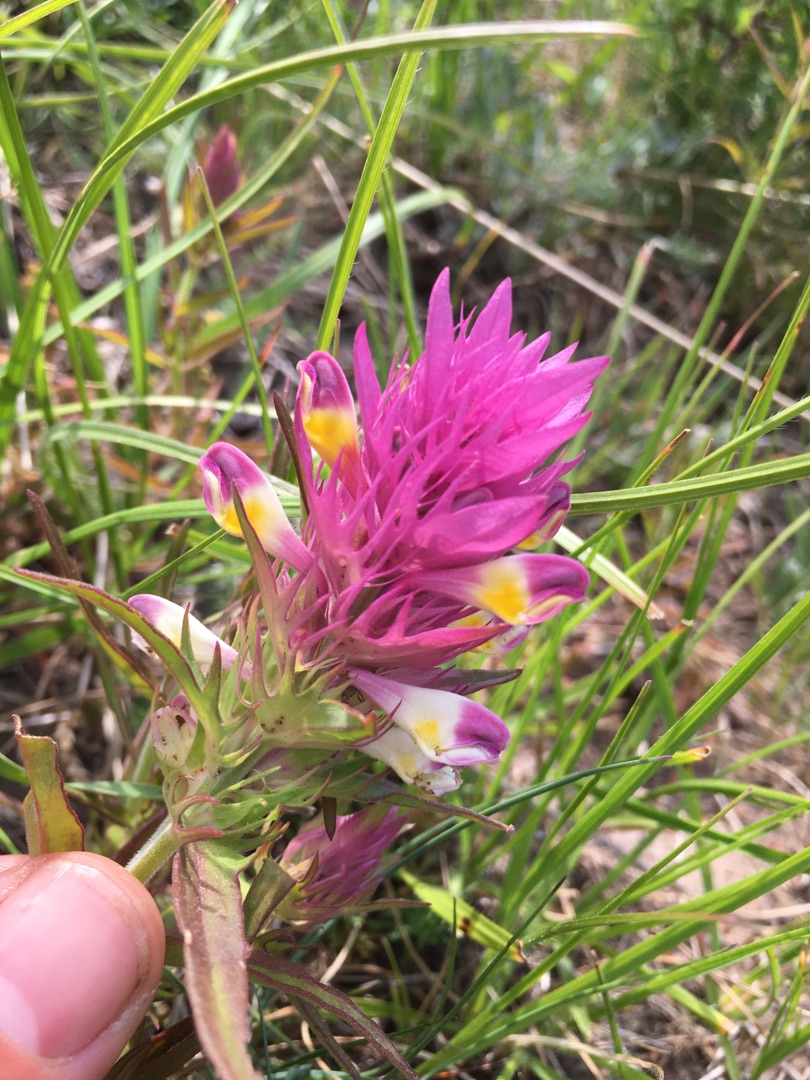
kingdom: Plantae
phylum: Tracheophyta
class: Magnoliopsida
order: Lamiales
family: Orobanchaceae
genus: Melampyrum
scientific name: Melampyrum arvense
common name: Ager-kohvede
